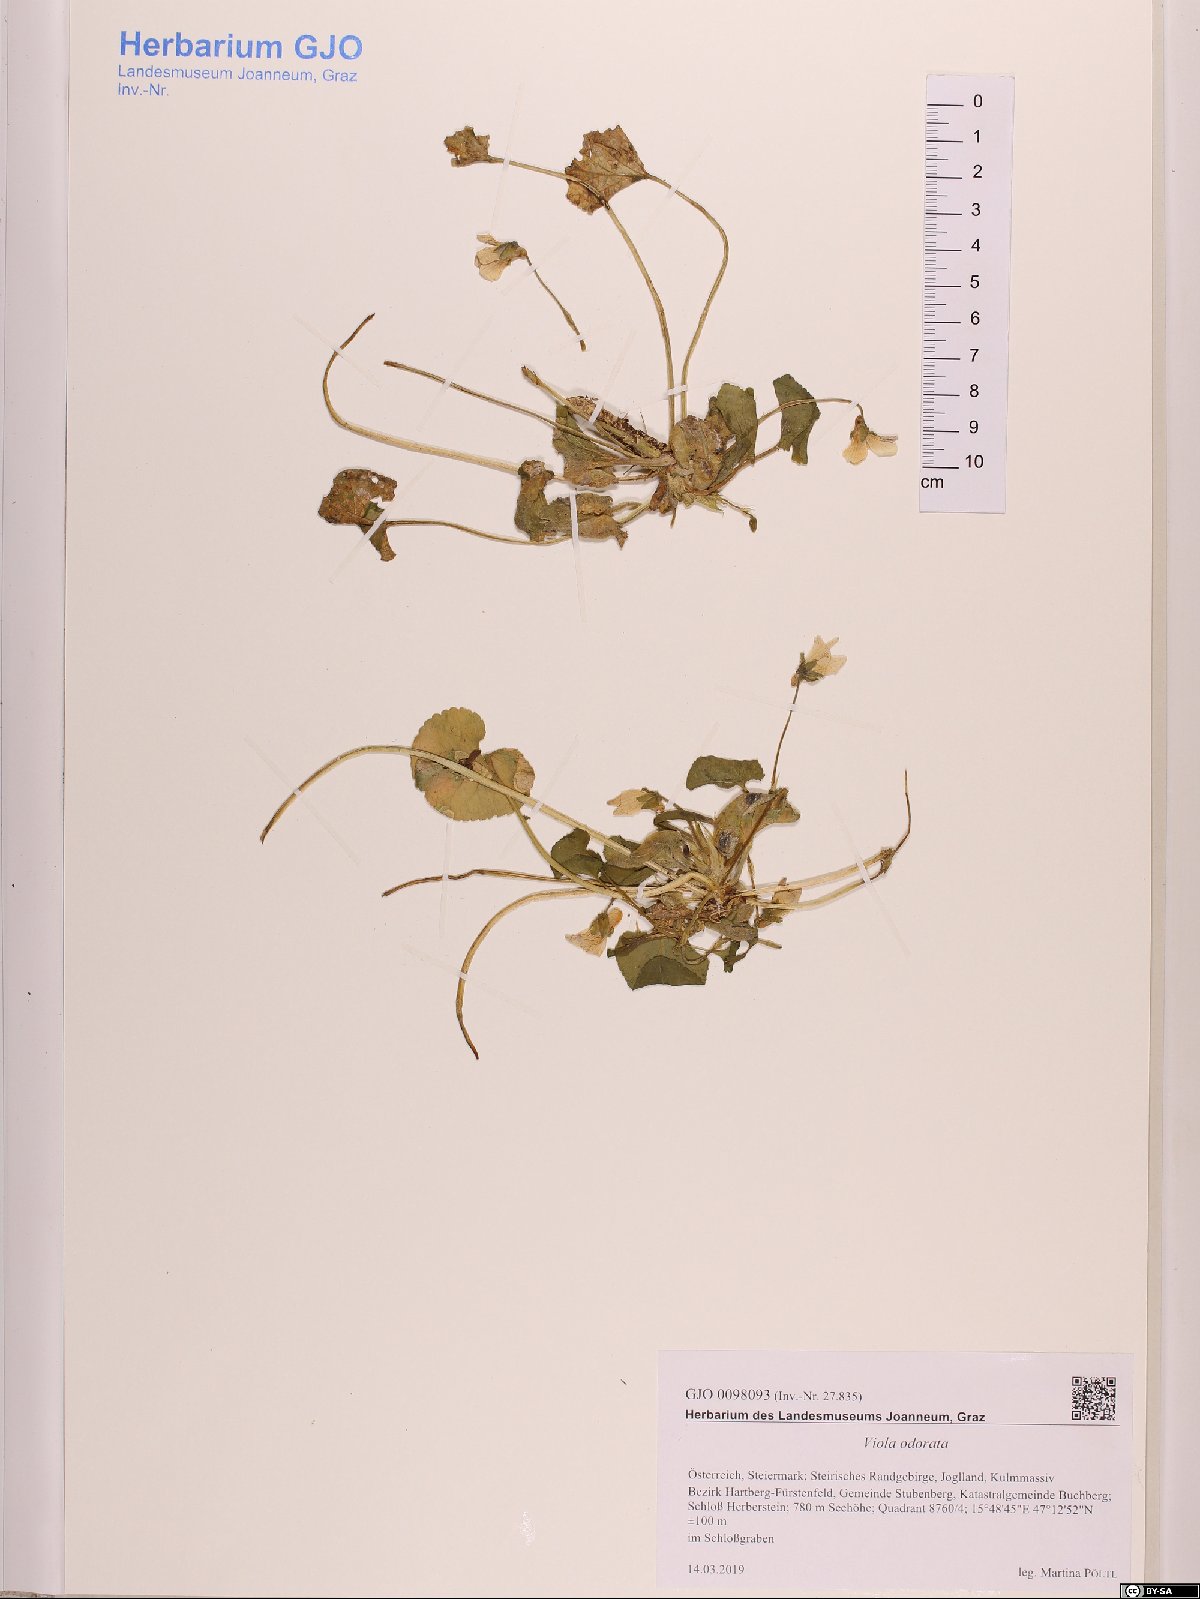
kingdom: Plantae
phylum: Tracheophyta
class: Magnoliopsida
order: Malpighiales
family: Violaceae
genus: Viola
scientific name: Viola odorata
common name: Sweet violet
